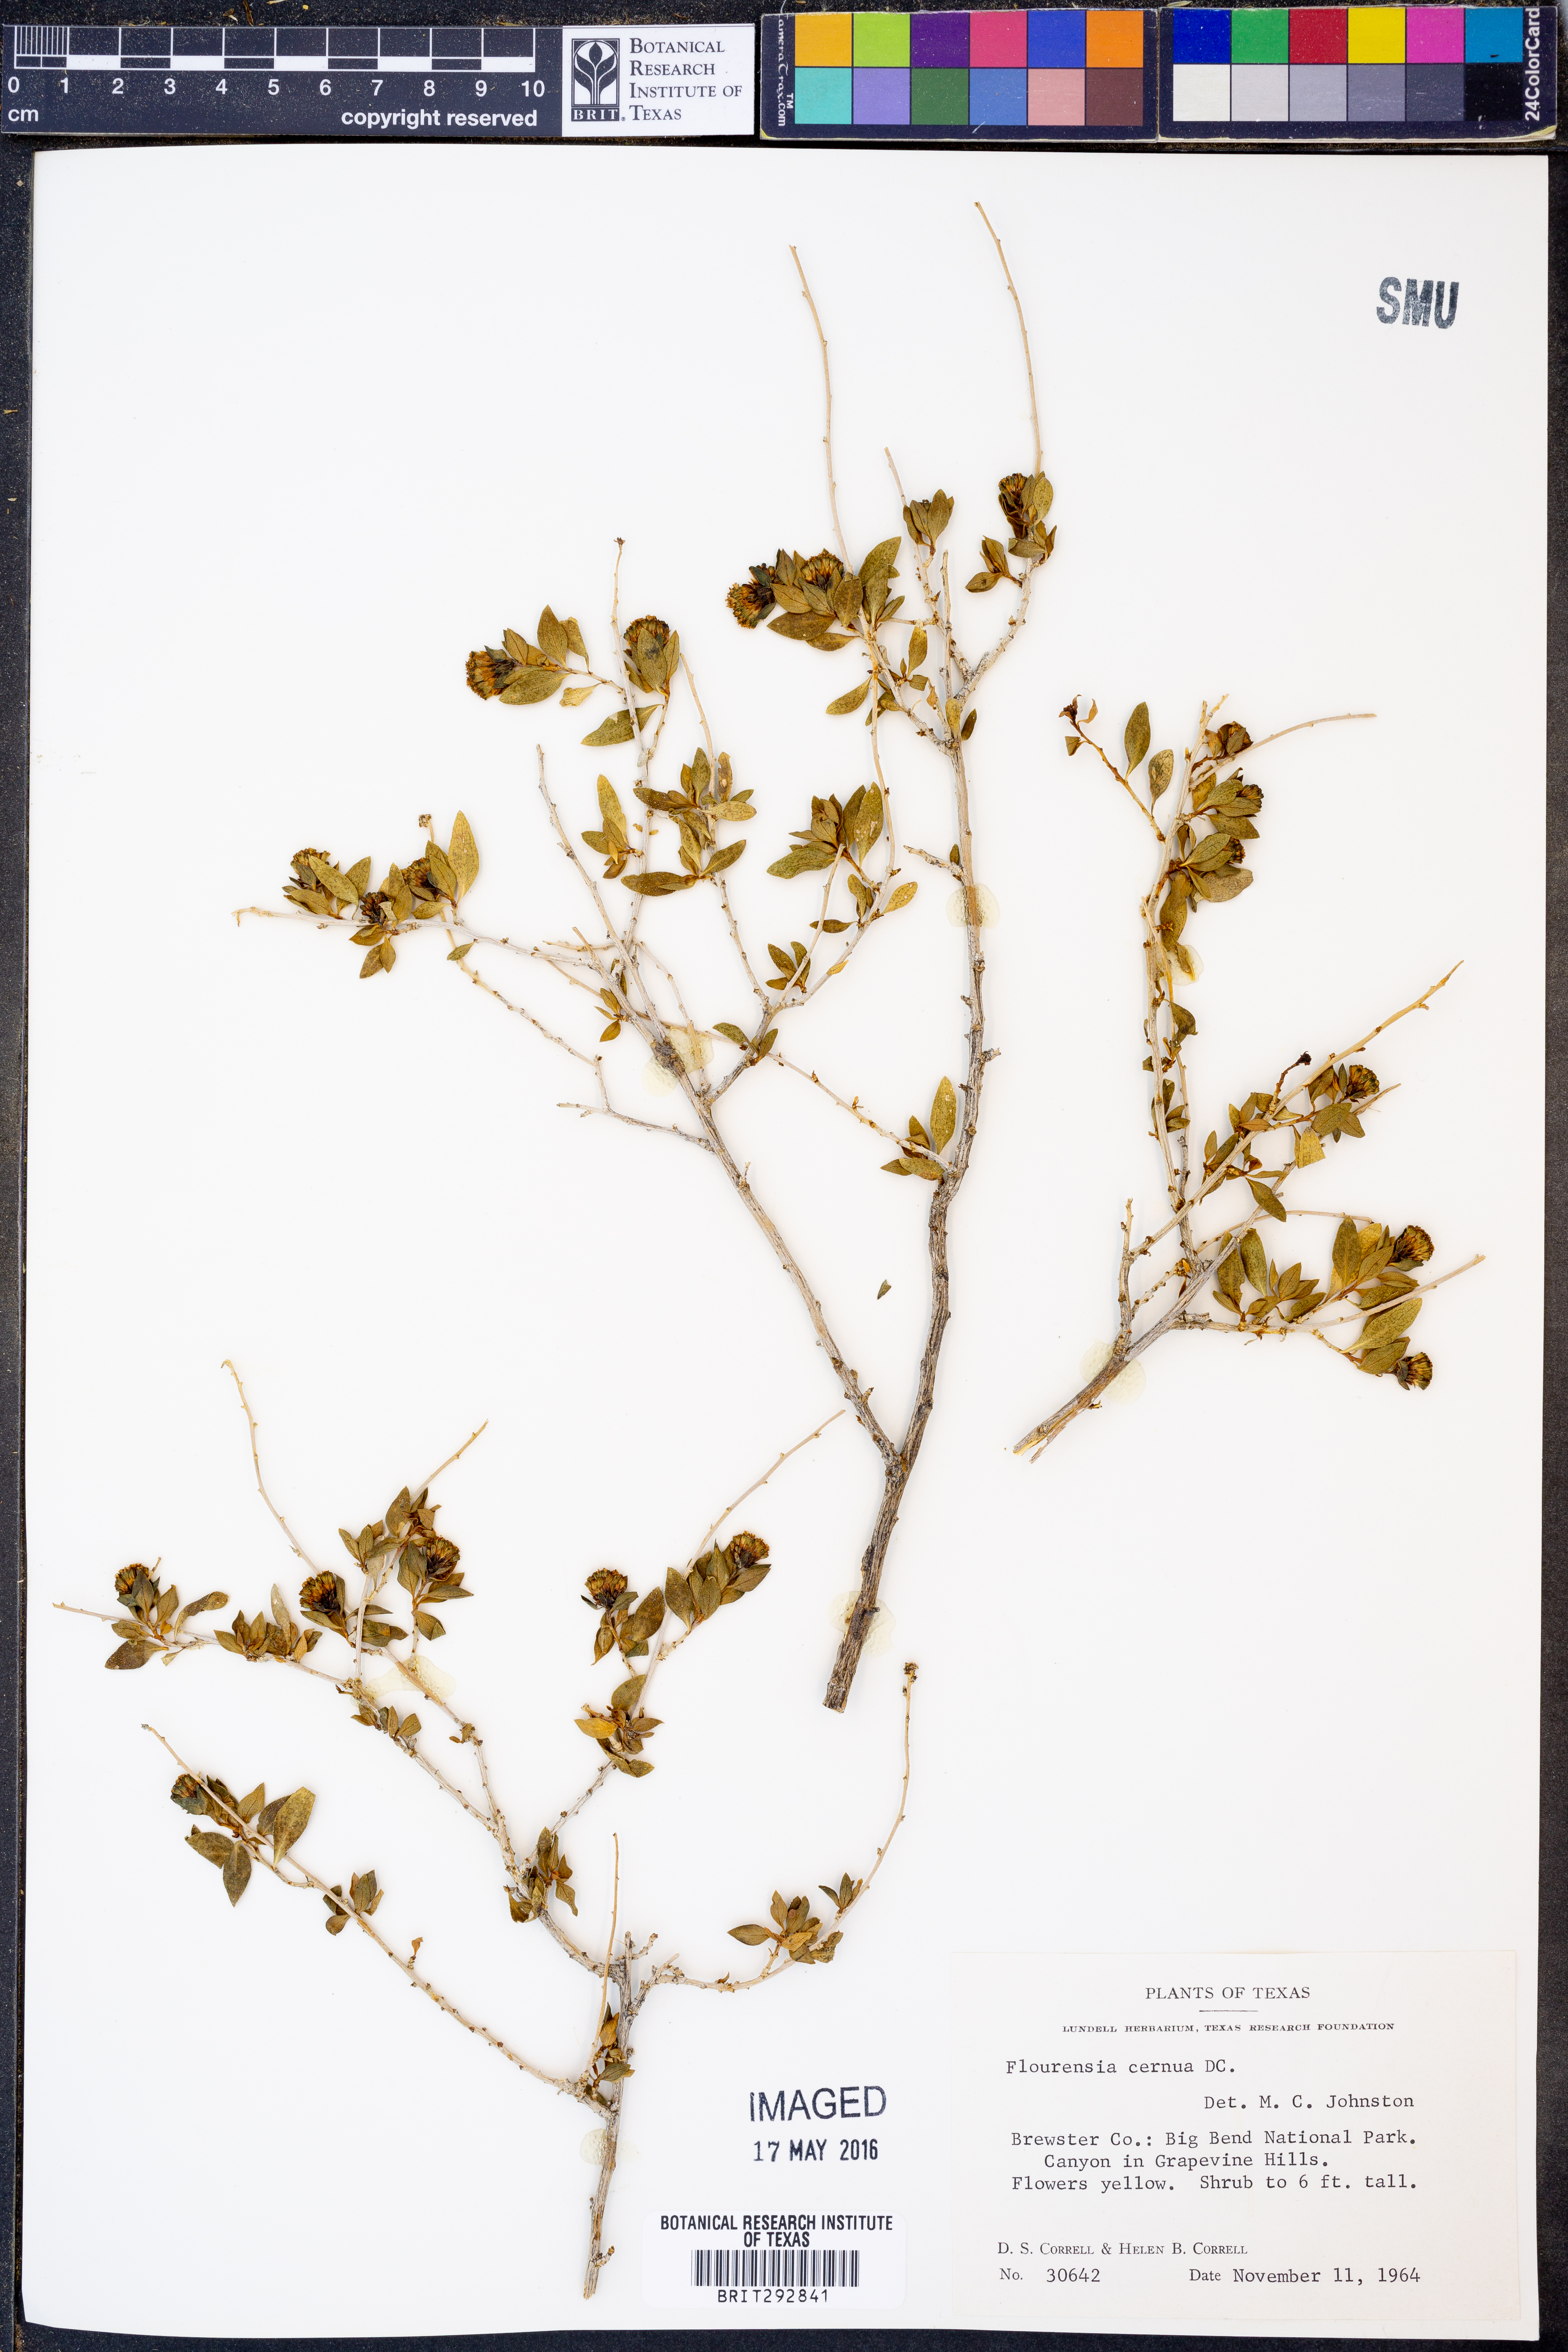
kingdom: Plantae
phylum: Tracheophyta
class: Magnoliopsida
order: Asterales
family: Asteraceae
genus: Flourensia
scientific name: Flourensia cernua
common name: Varnishbush
